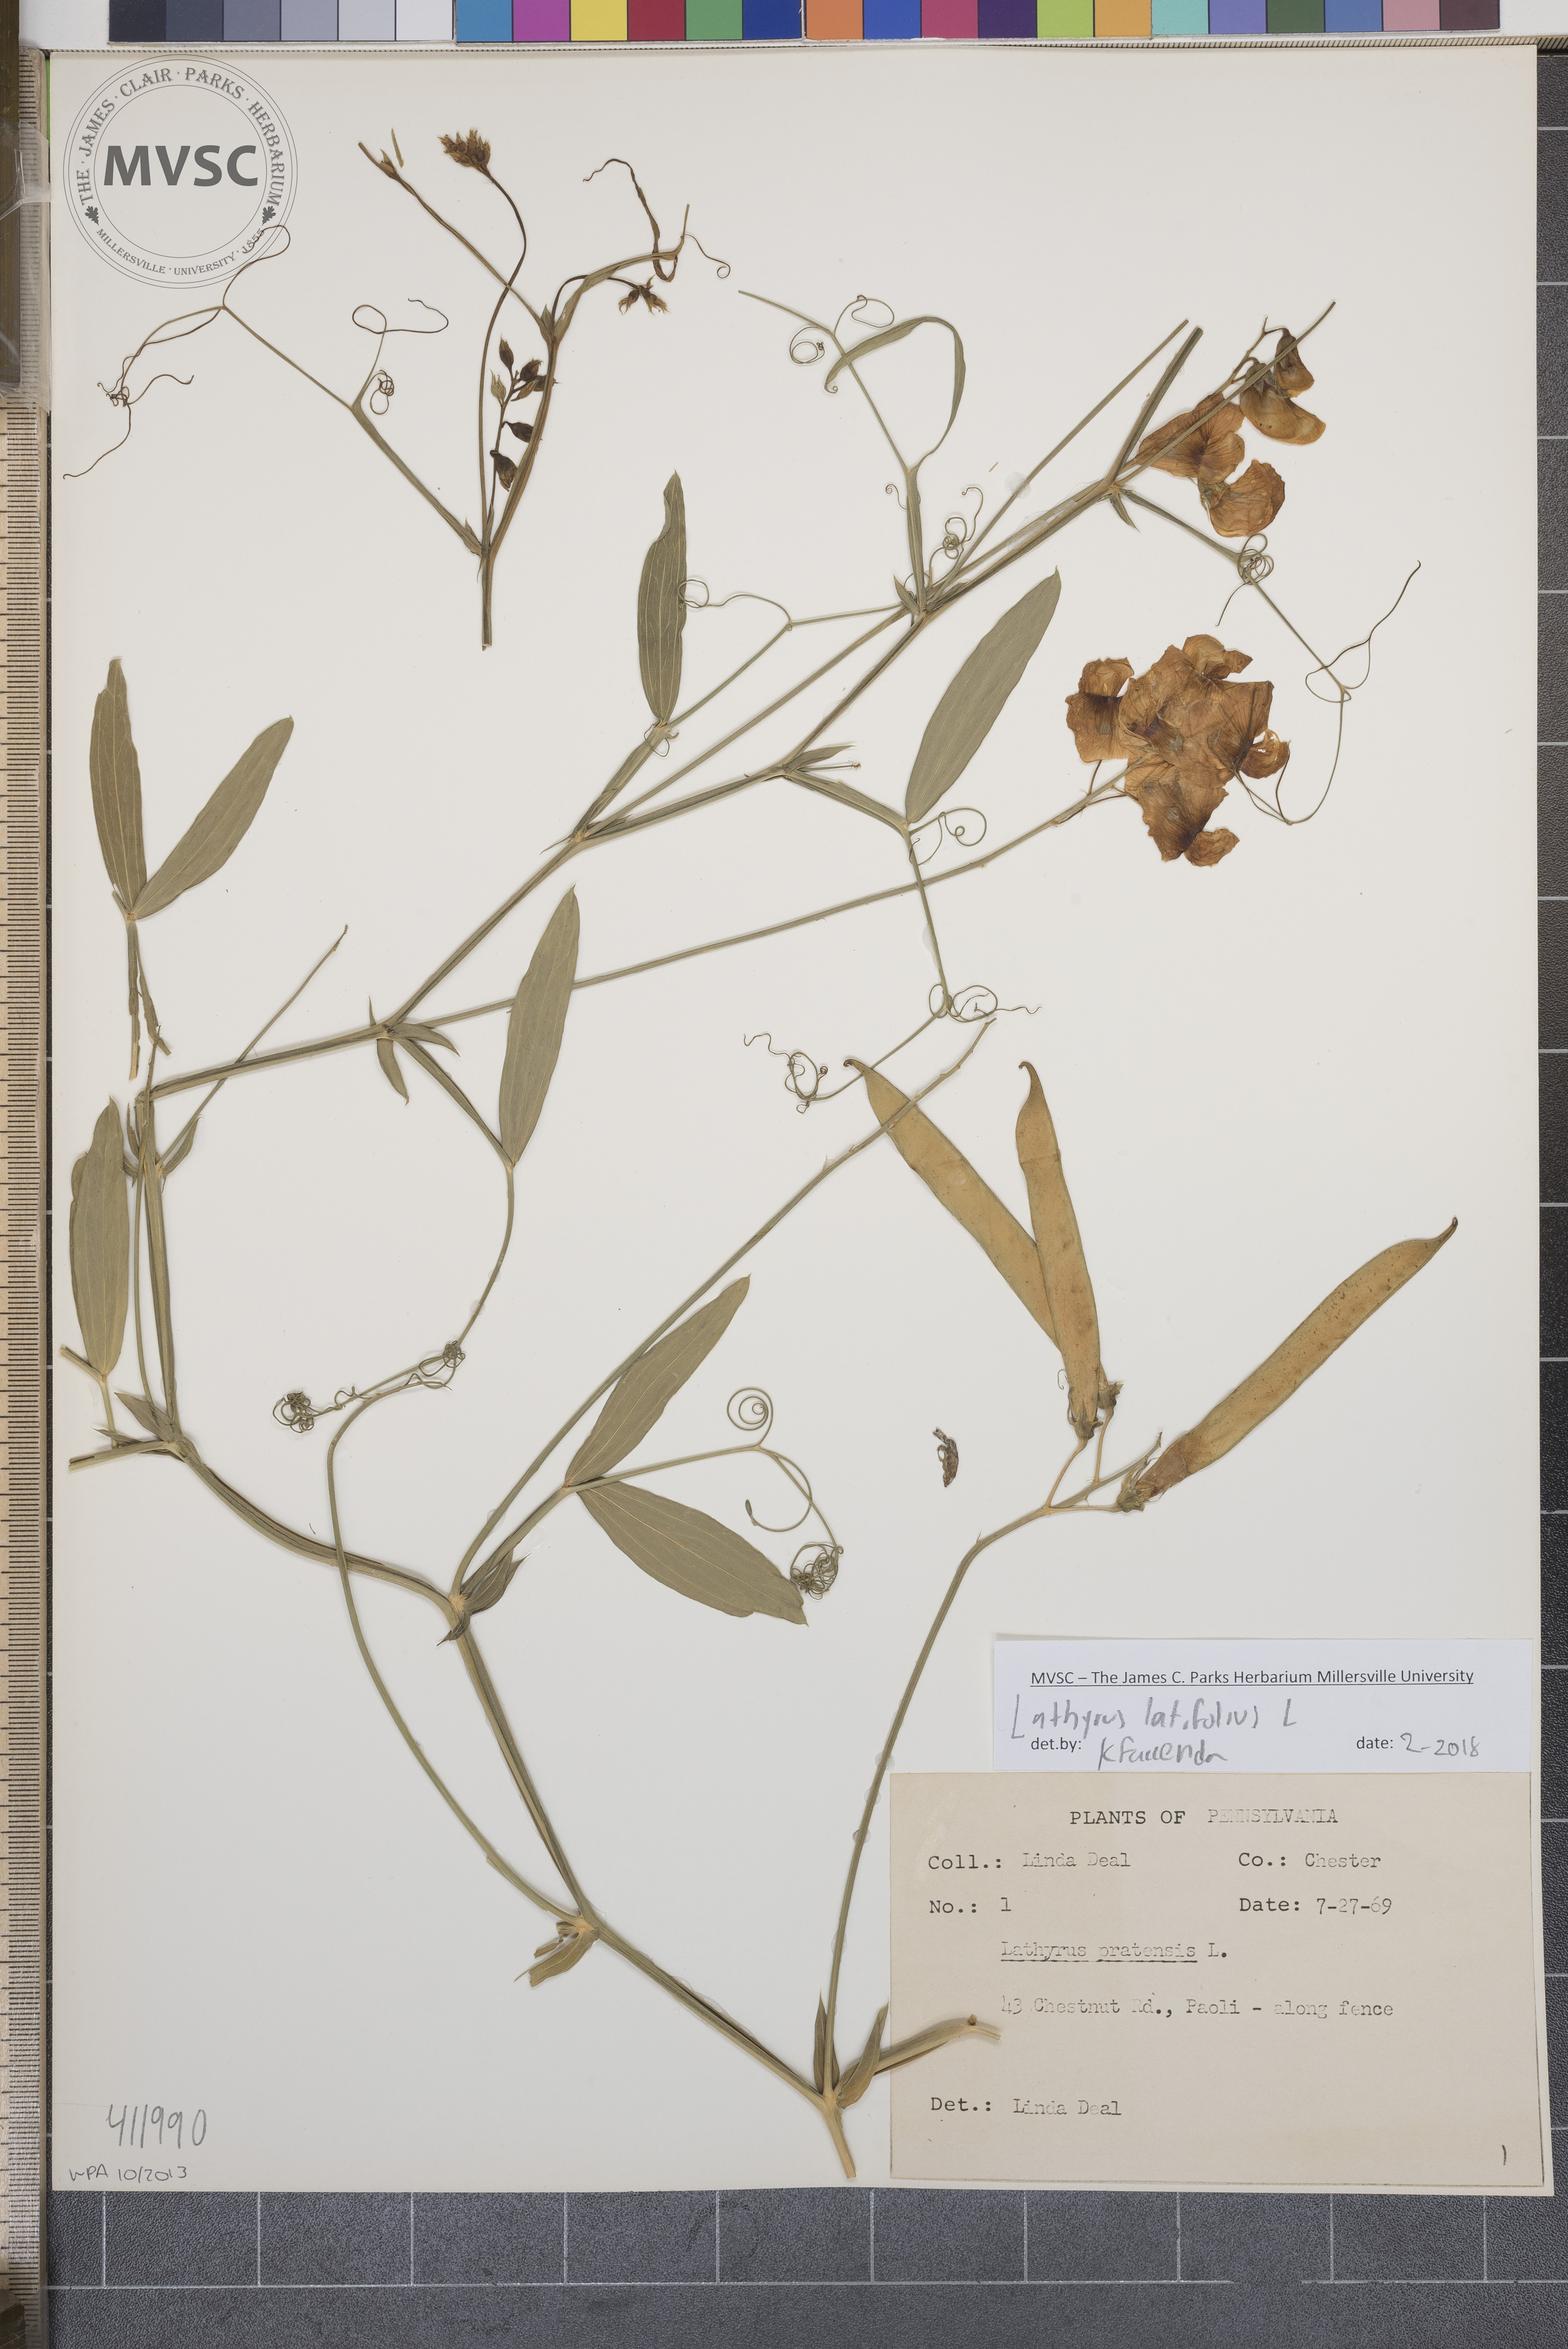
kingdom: Plantae
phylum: Tracheophyta
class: Magnoliopsida
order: Fabales
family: Fabaceae
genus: Lathyrus
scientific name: Lathyrus latifolius
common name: Sweetpea
